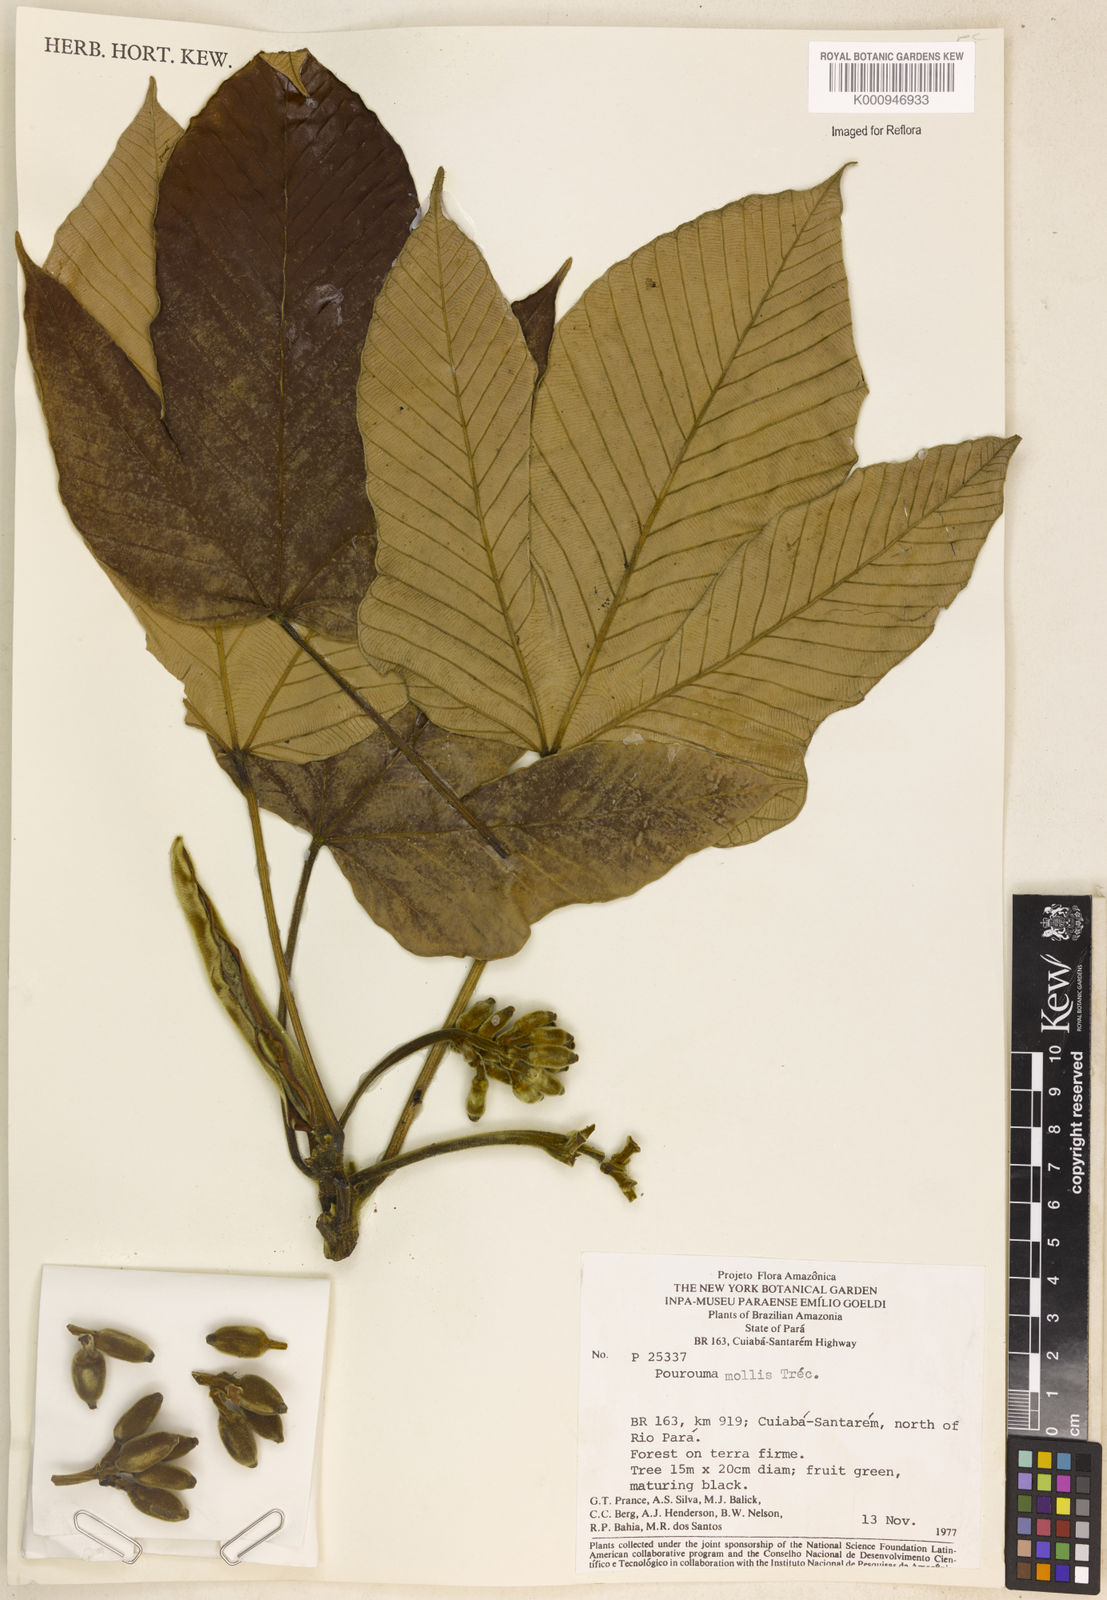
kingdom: Plantae
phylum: Tracheophyta
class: Magnoliopsida
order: Rosales
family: Urticaceae
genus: Pourouma
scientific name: Pourouma
